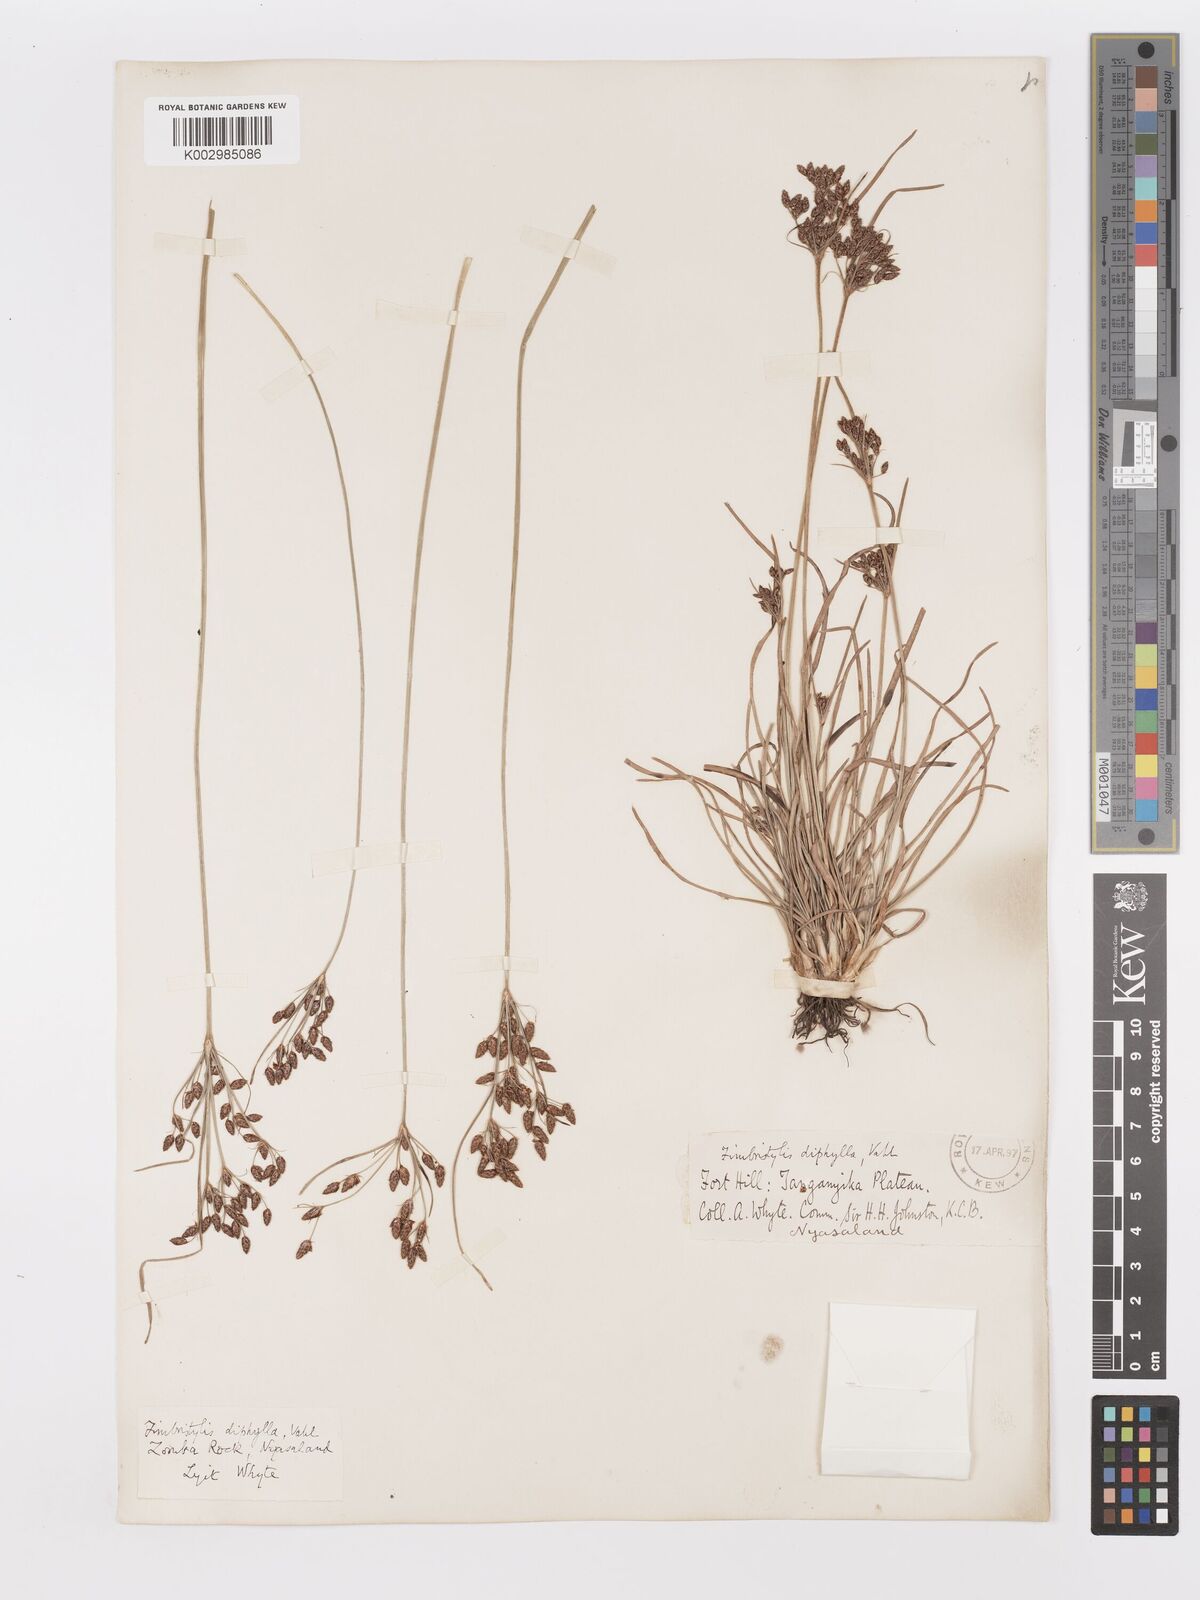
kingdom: Plantae
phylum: Tracheophyta
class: Liliopsida
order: Poales
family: Cyperaceae
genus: Fimbristylis
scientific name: Fimbristylis dichotoma
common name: Forked fimbry
